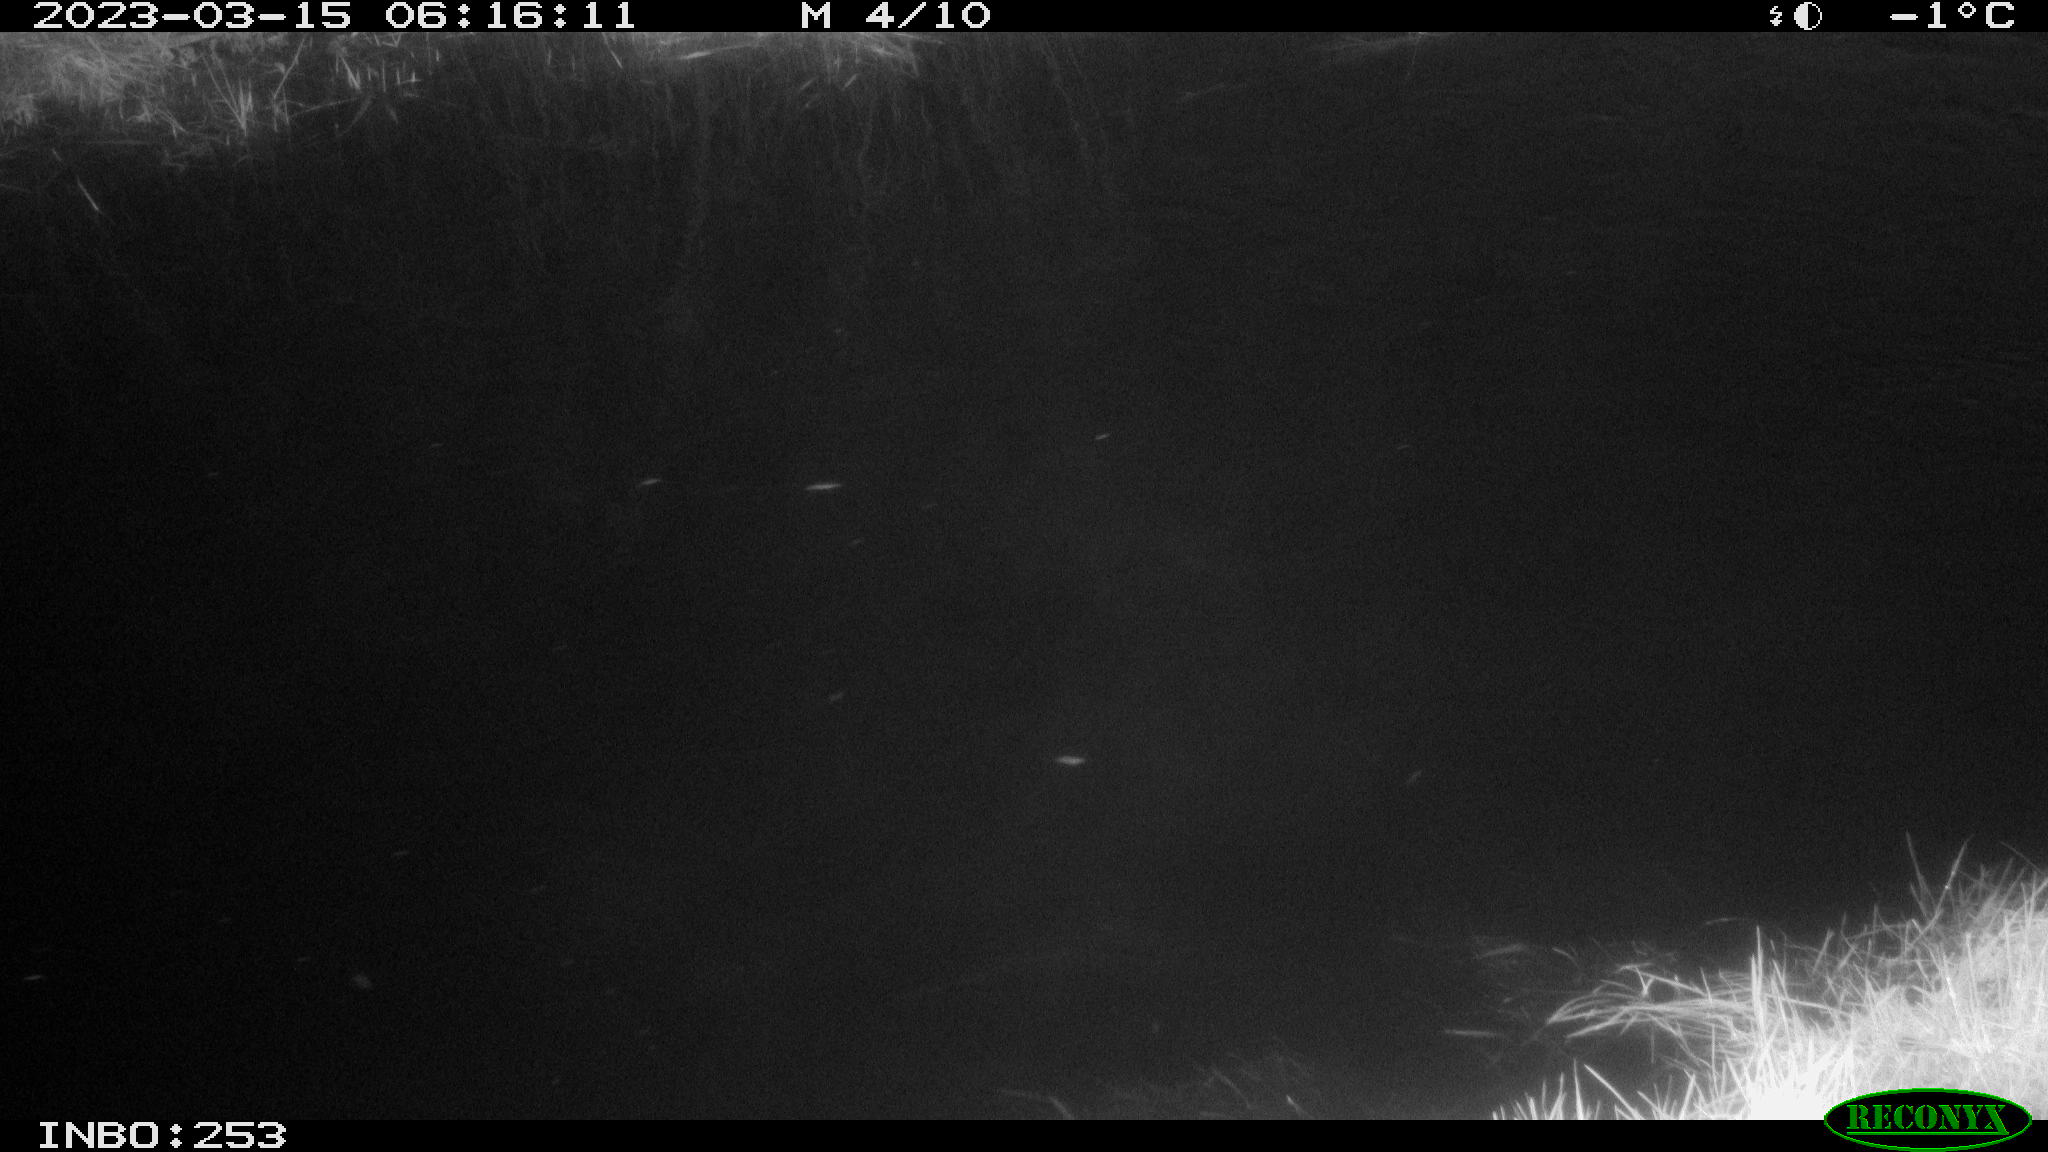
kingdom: Animalia
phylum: Chordata
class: Mammalia
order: Rodentia
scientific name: Rodentia
